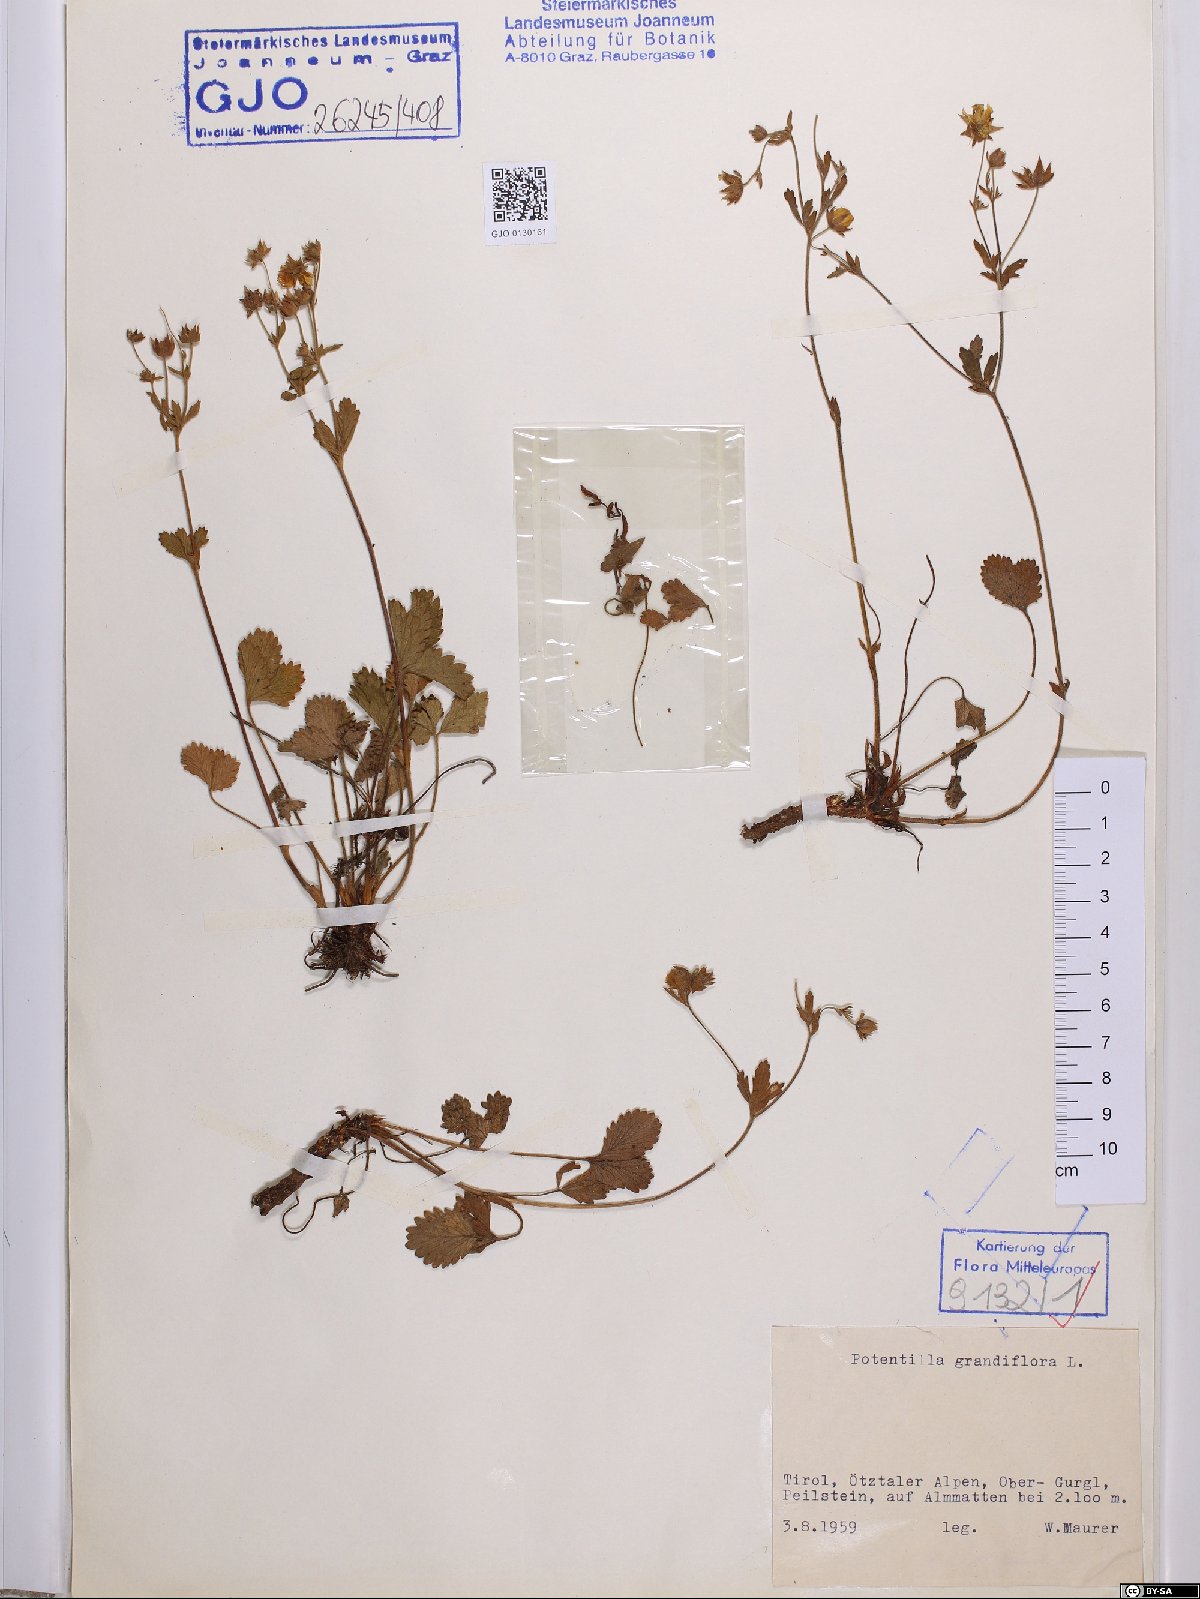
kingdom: Plantae
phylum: Tracheophyta
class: Magnoliopsida
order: Rosales
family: Rosaceae
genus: Potentilla
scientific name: Potentilla grandiflora
